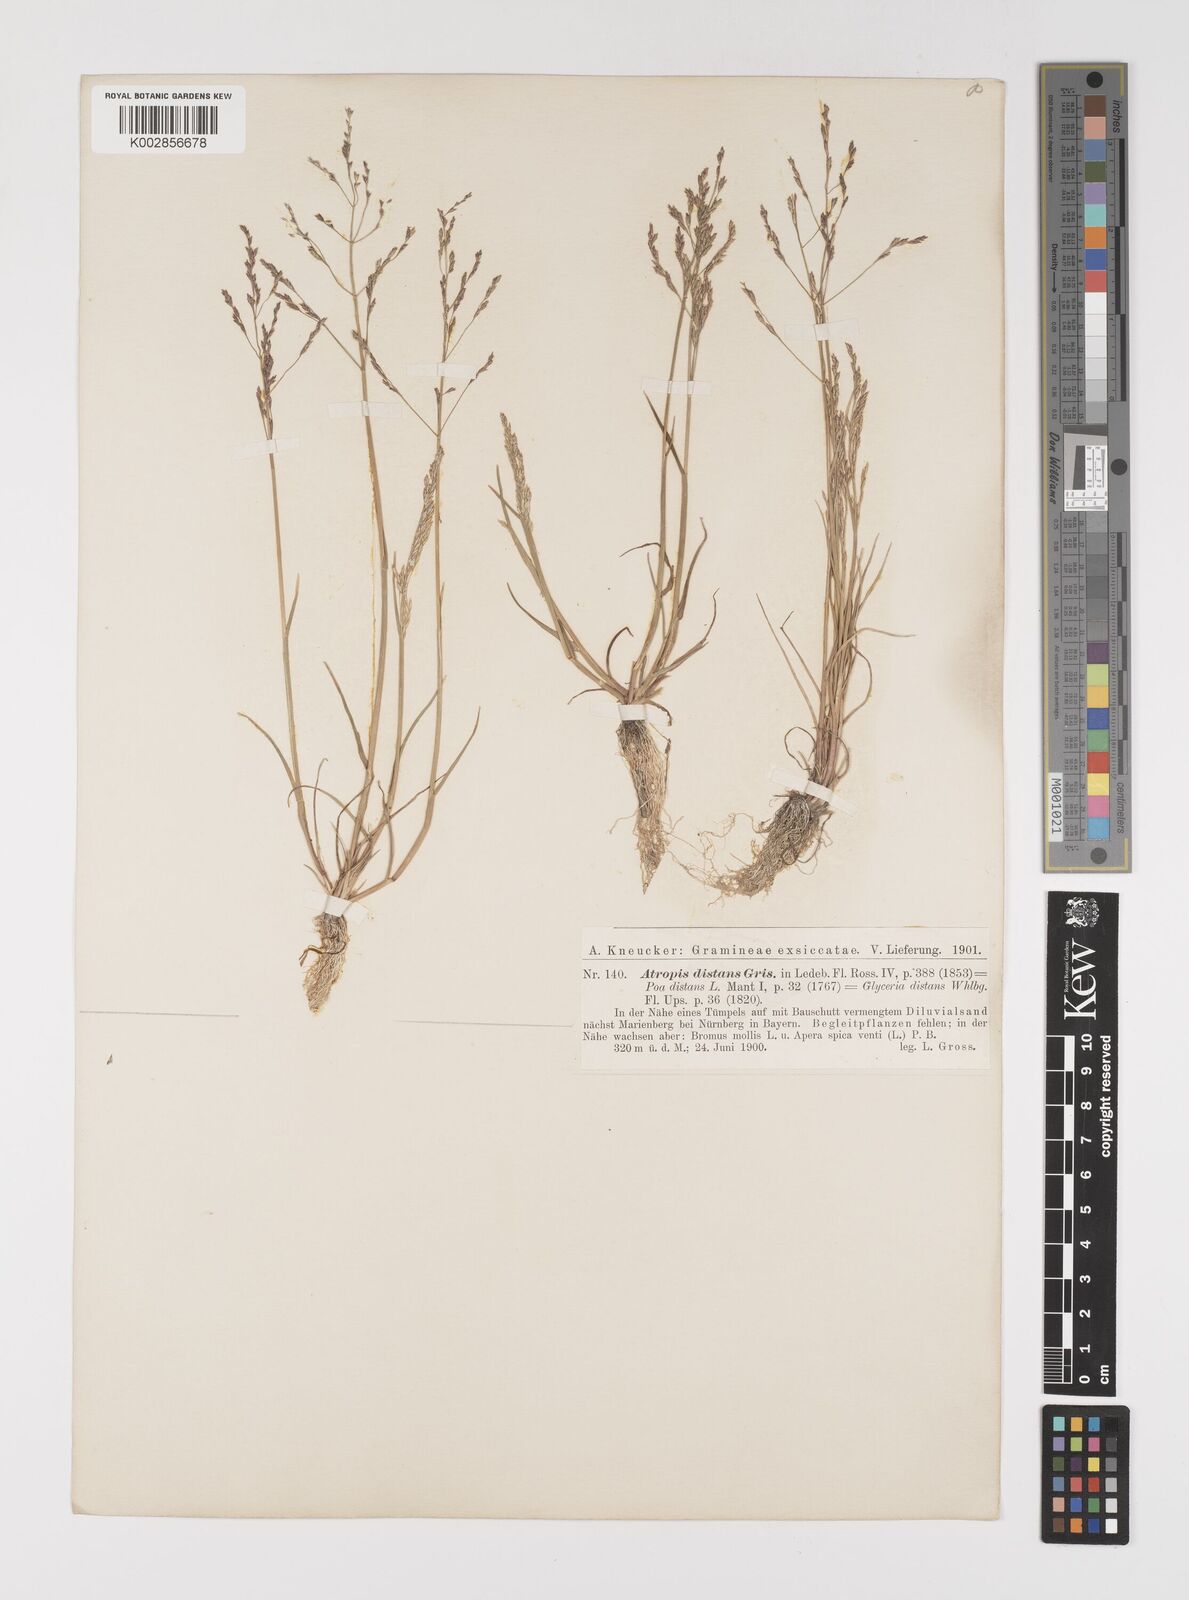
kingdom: Plantae
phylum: Tracheophyta
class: Liliopsida
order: Poales
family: Poaceae
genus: Puccinellia
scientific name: Puccinellia
